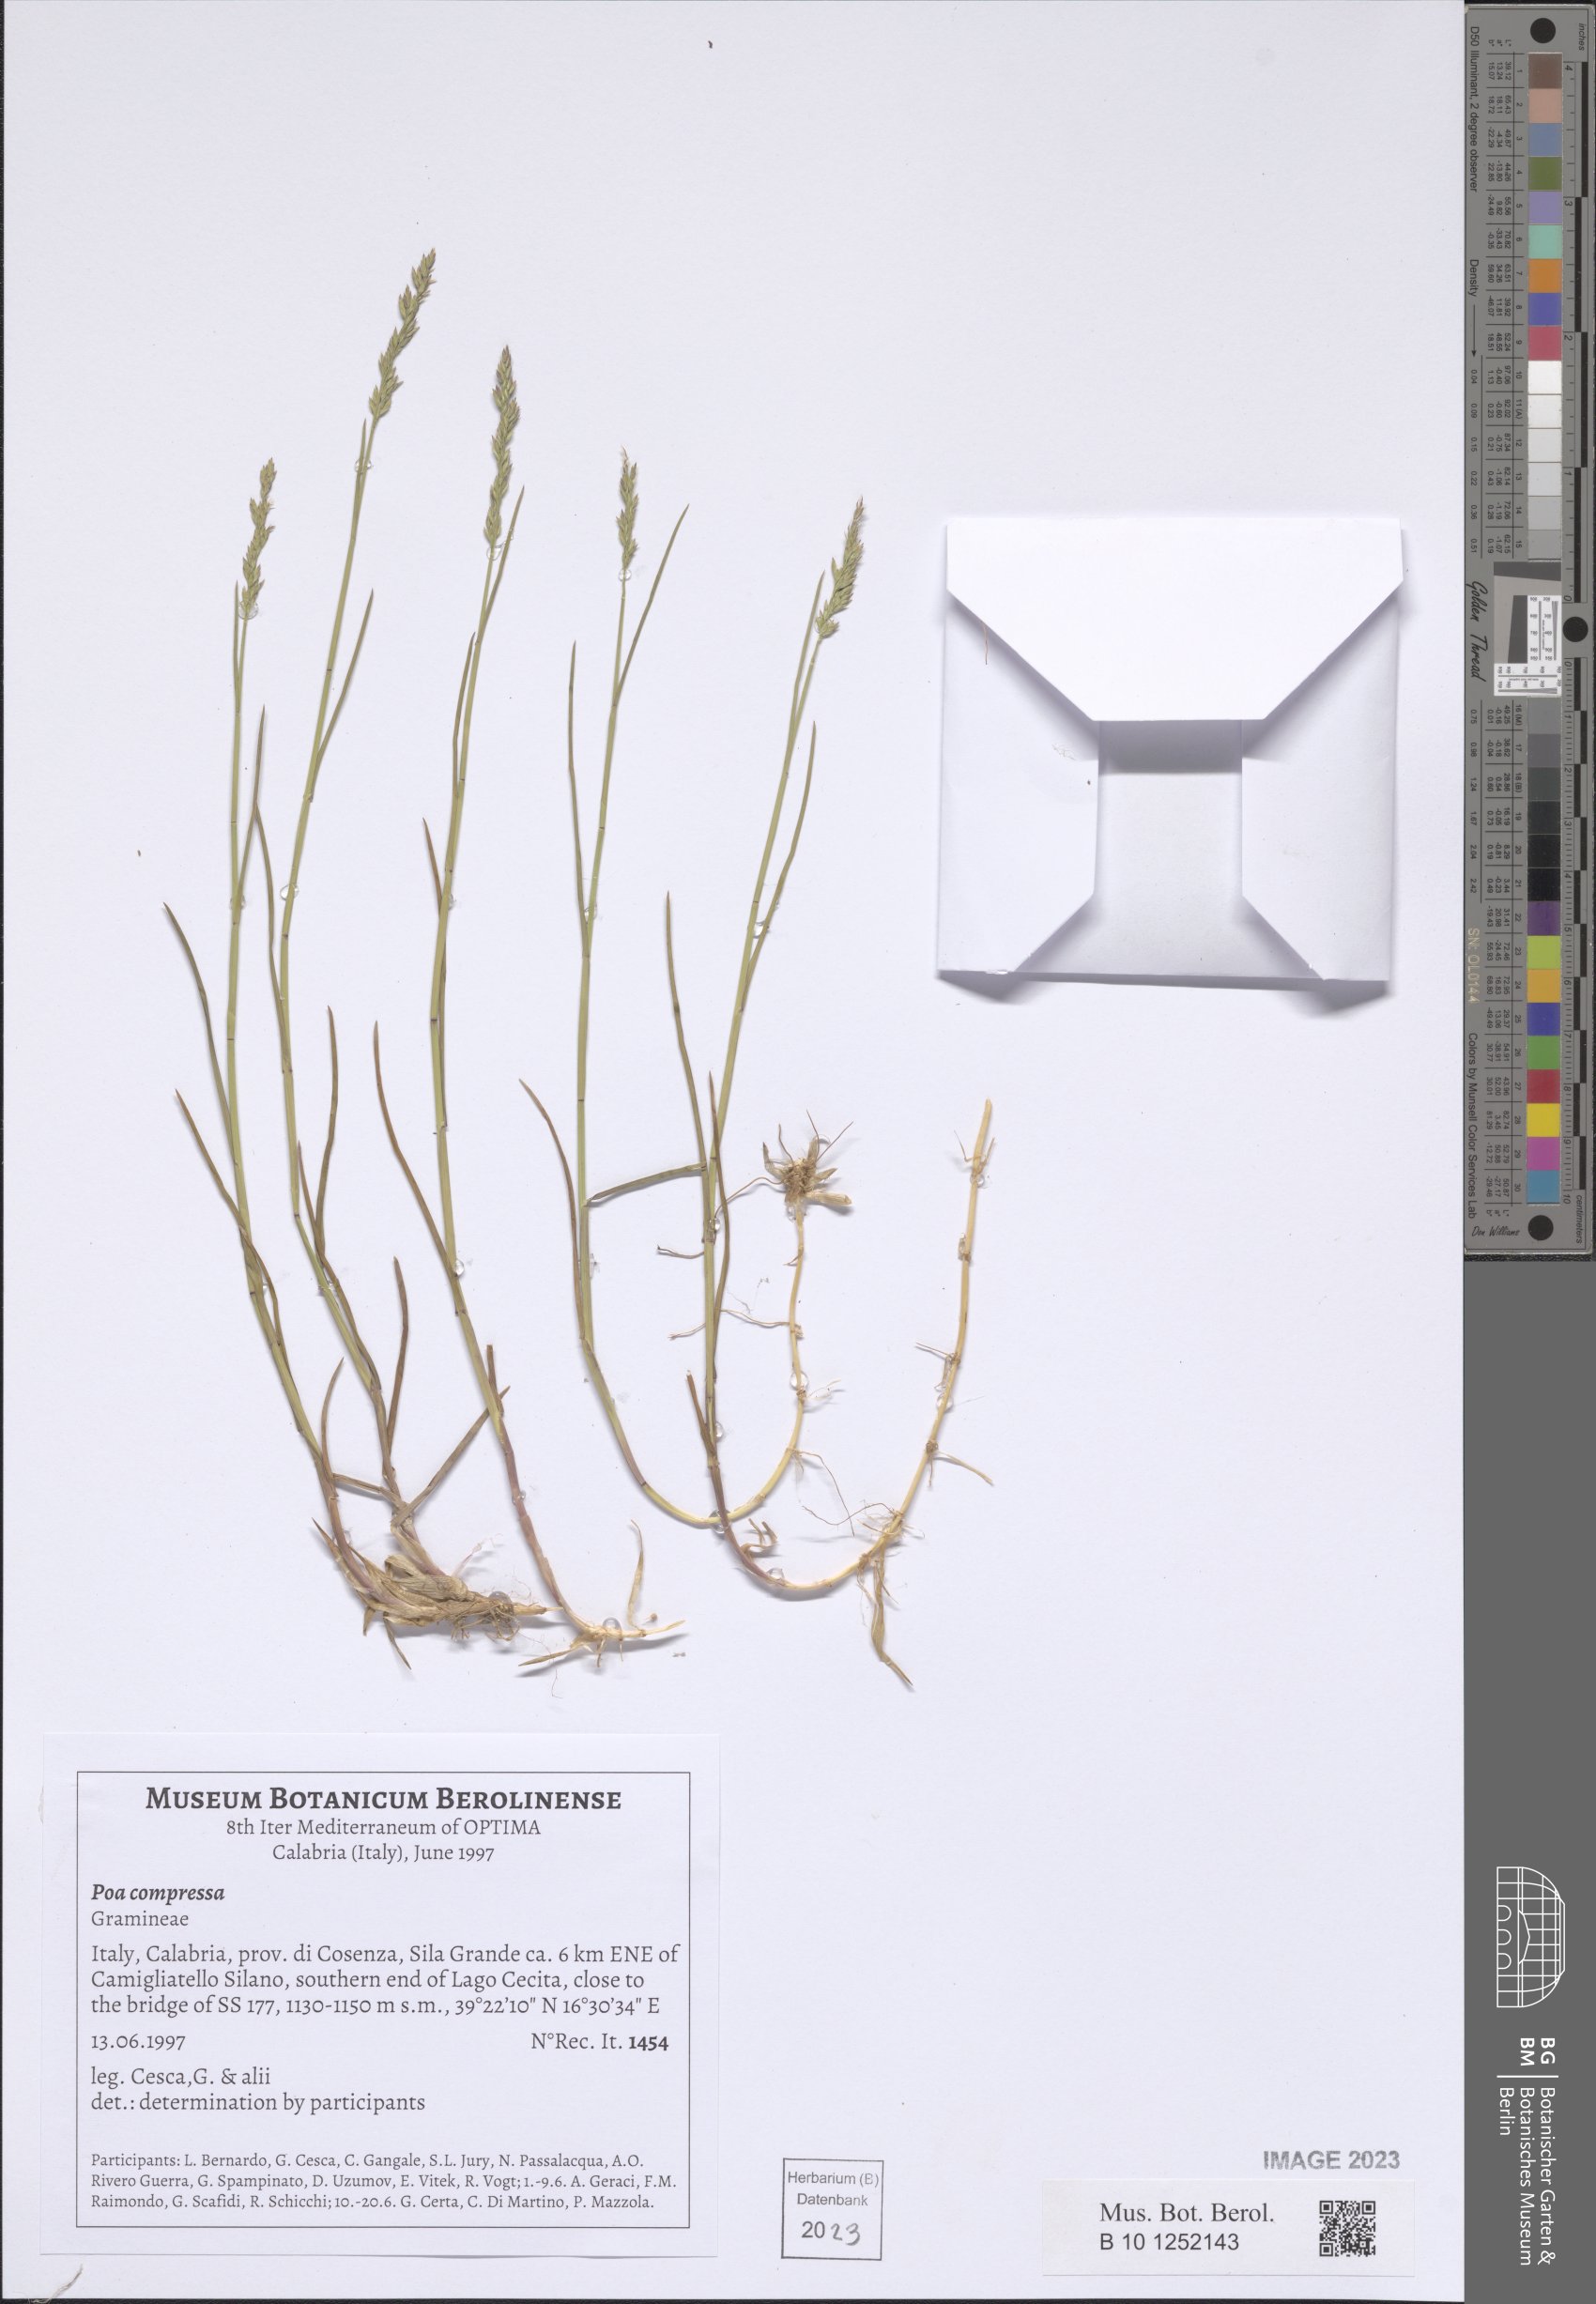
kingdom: Plantae
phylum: Tracheophyta
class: Liliopsida
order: Poales
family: Poaceae
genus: Poa
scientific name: Poa compressa
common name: Canada bluegrass
